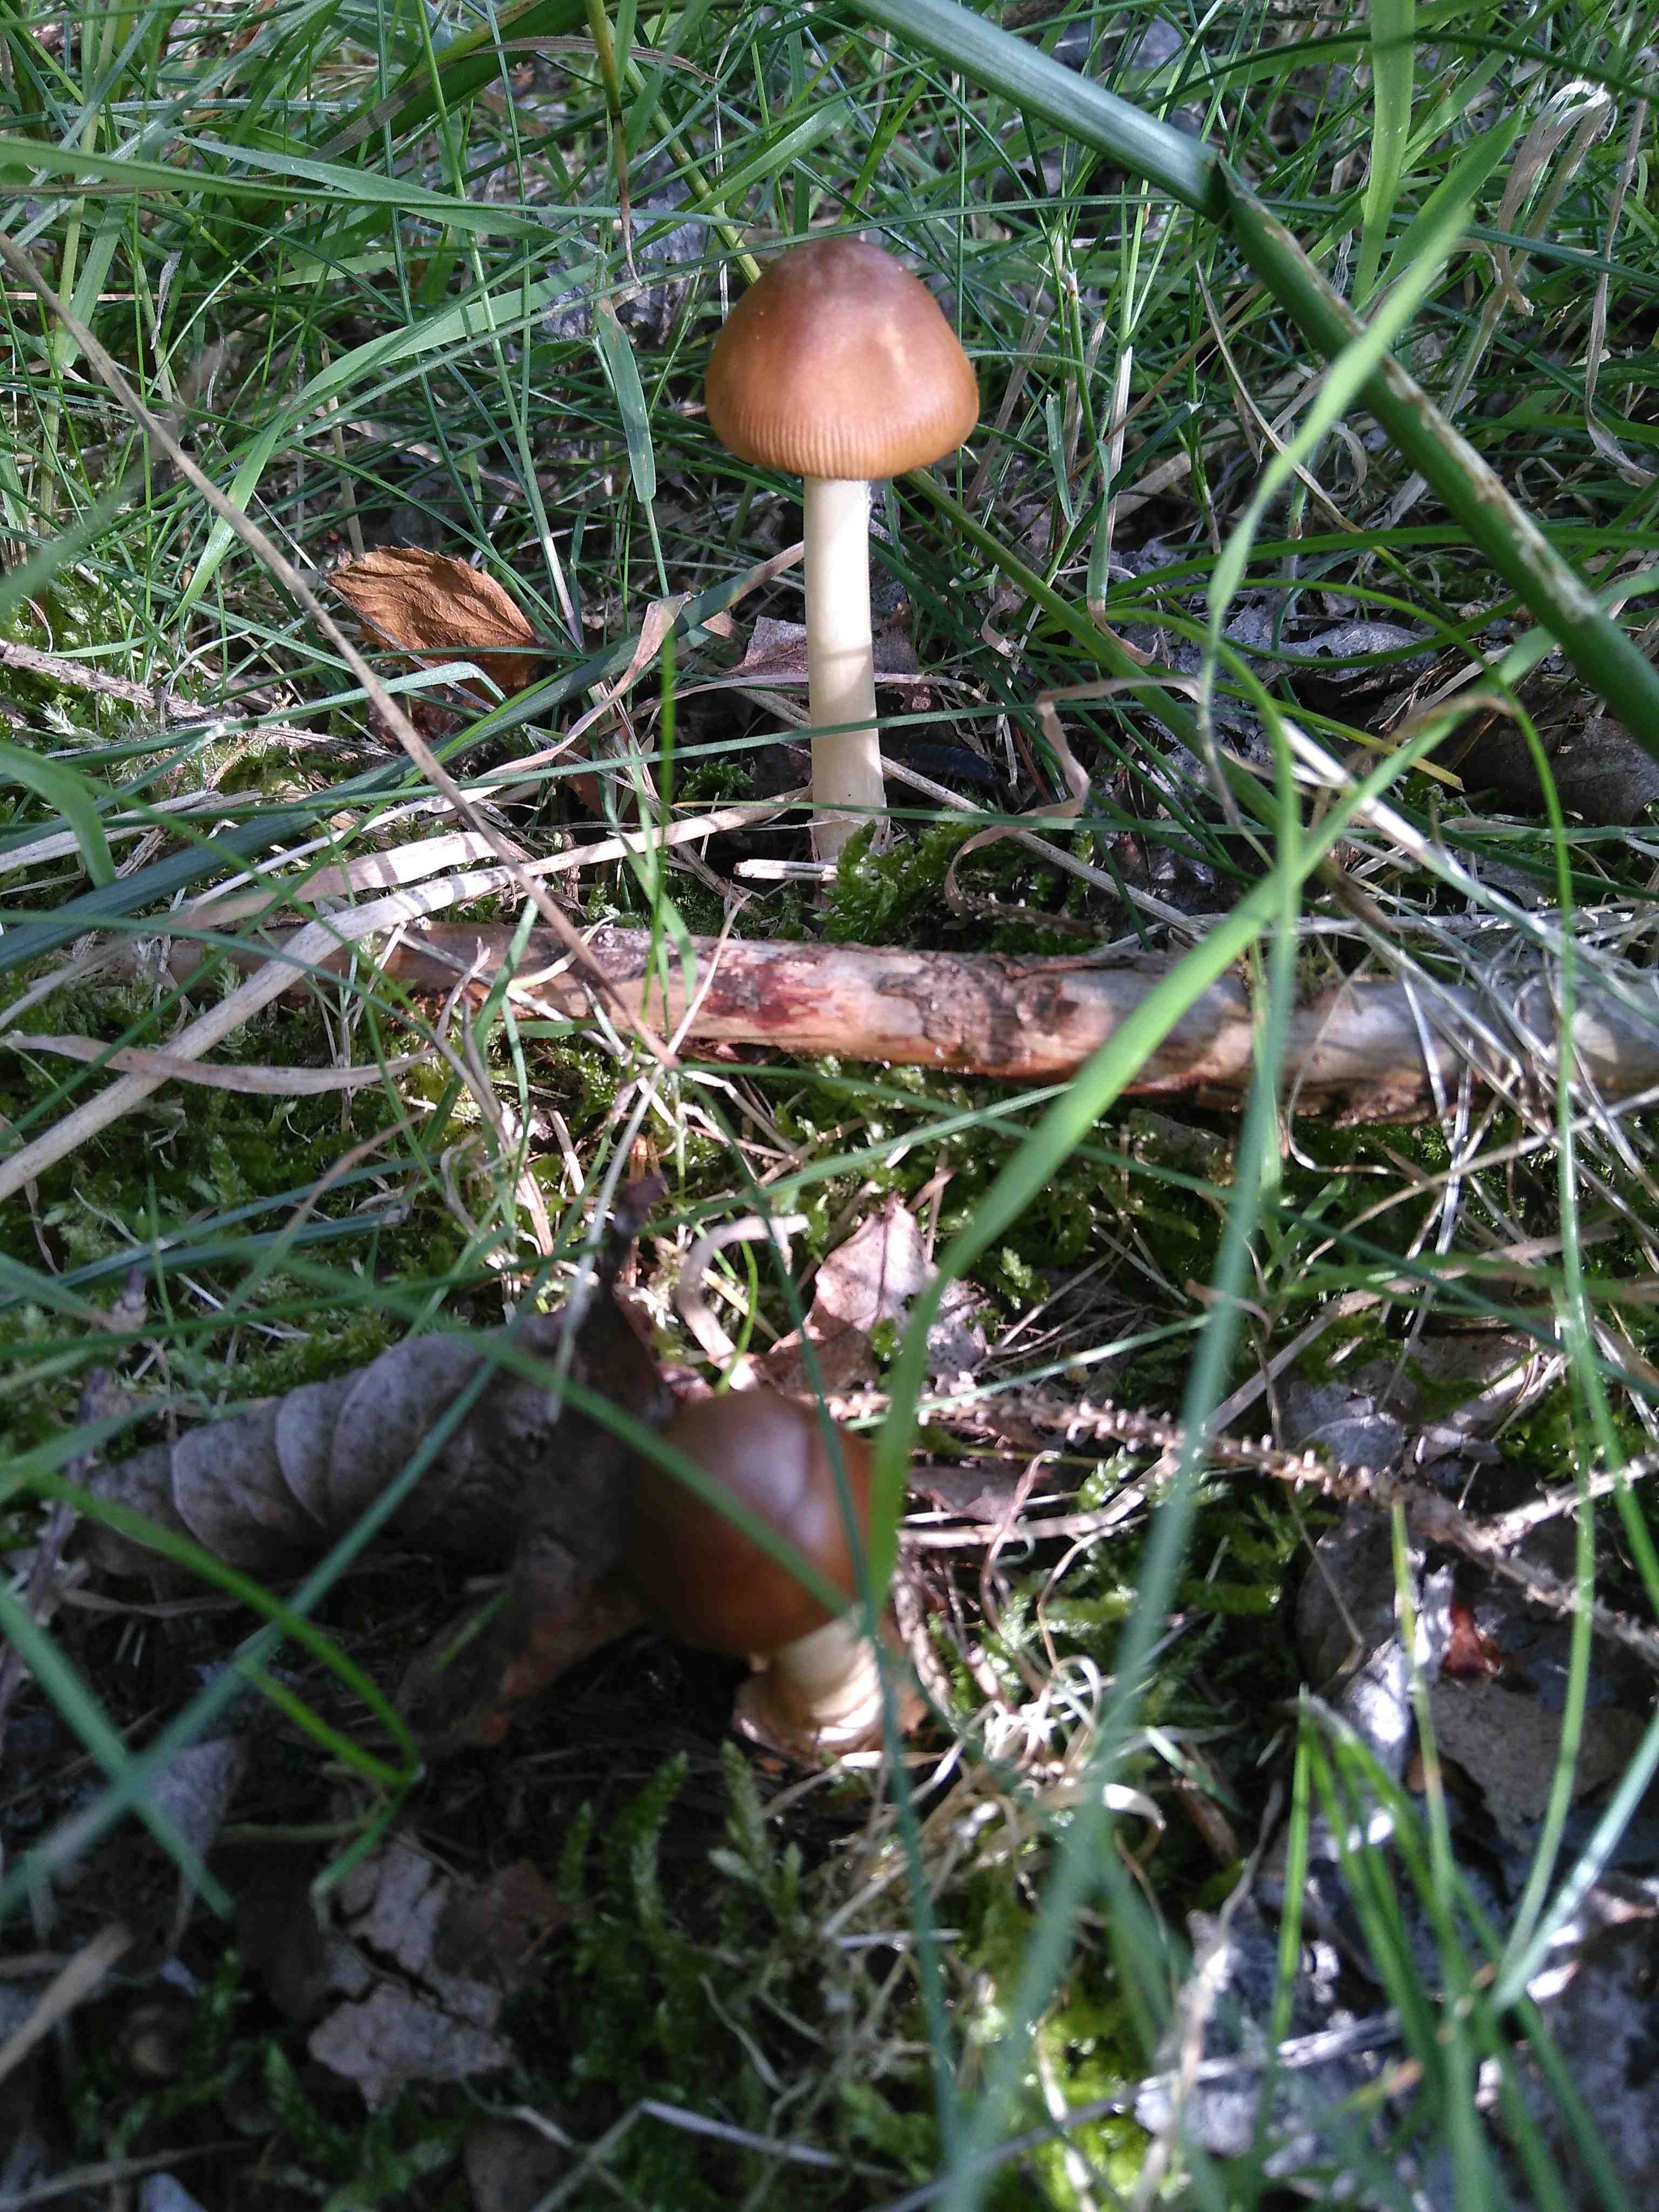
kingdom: Fungi
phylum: Basidiomycota
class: Agaricomycetes
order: Agaricales
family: Amanitaceae
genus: Amanita
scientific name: Amanita fulva
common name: brun kam-fluesvamp
